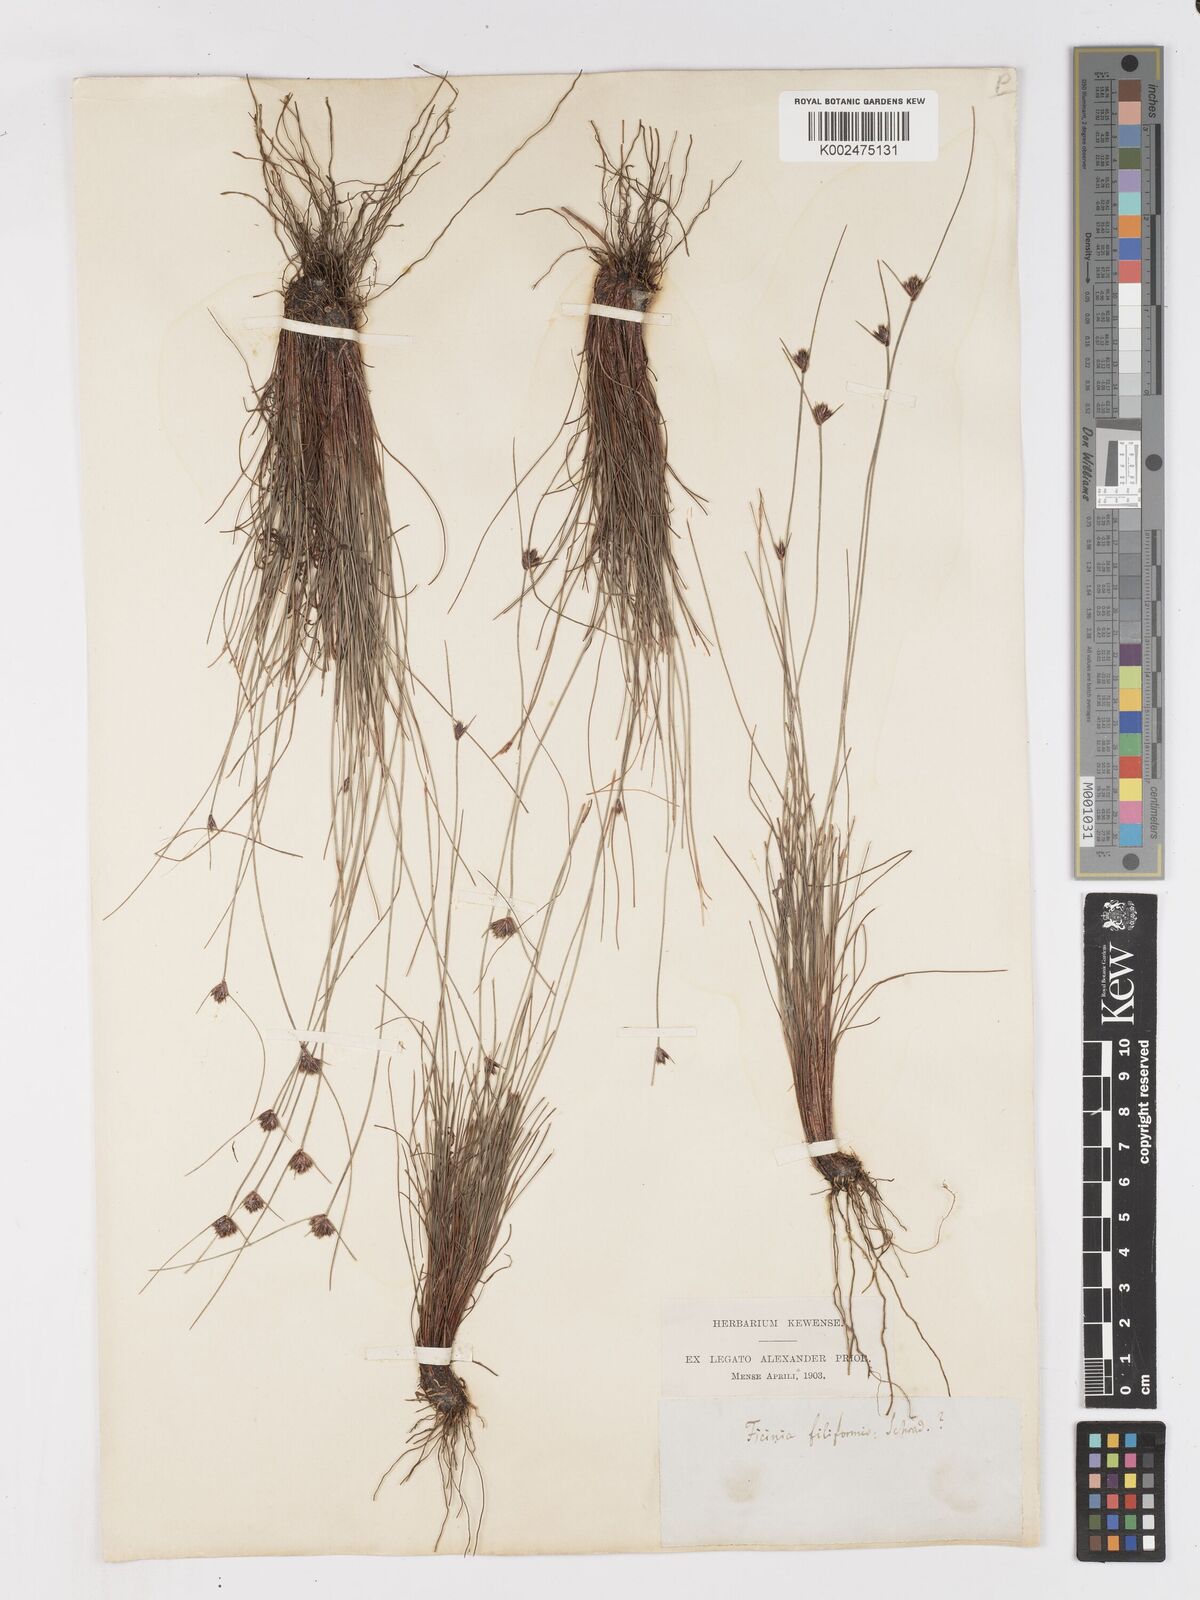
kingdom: Plantae
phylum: Tracheophyta
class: Liliopsida
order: Poales
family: Cyperaceae
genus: Ficinia
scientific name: Ficinia filiformis
